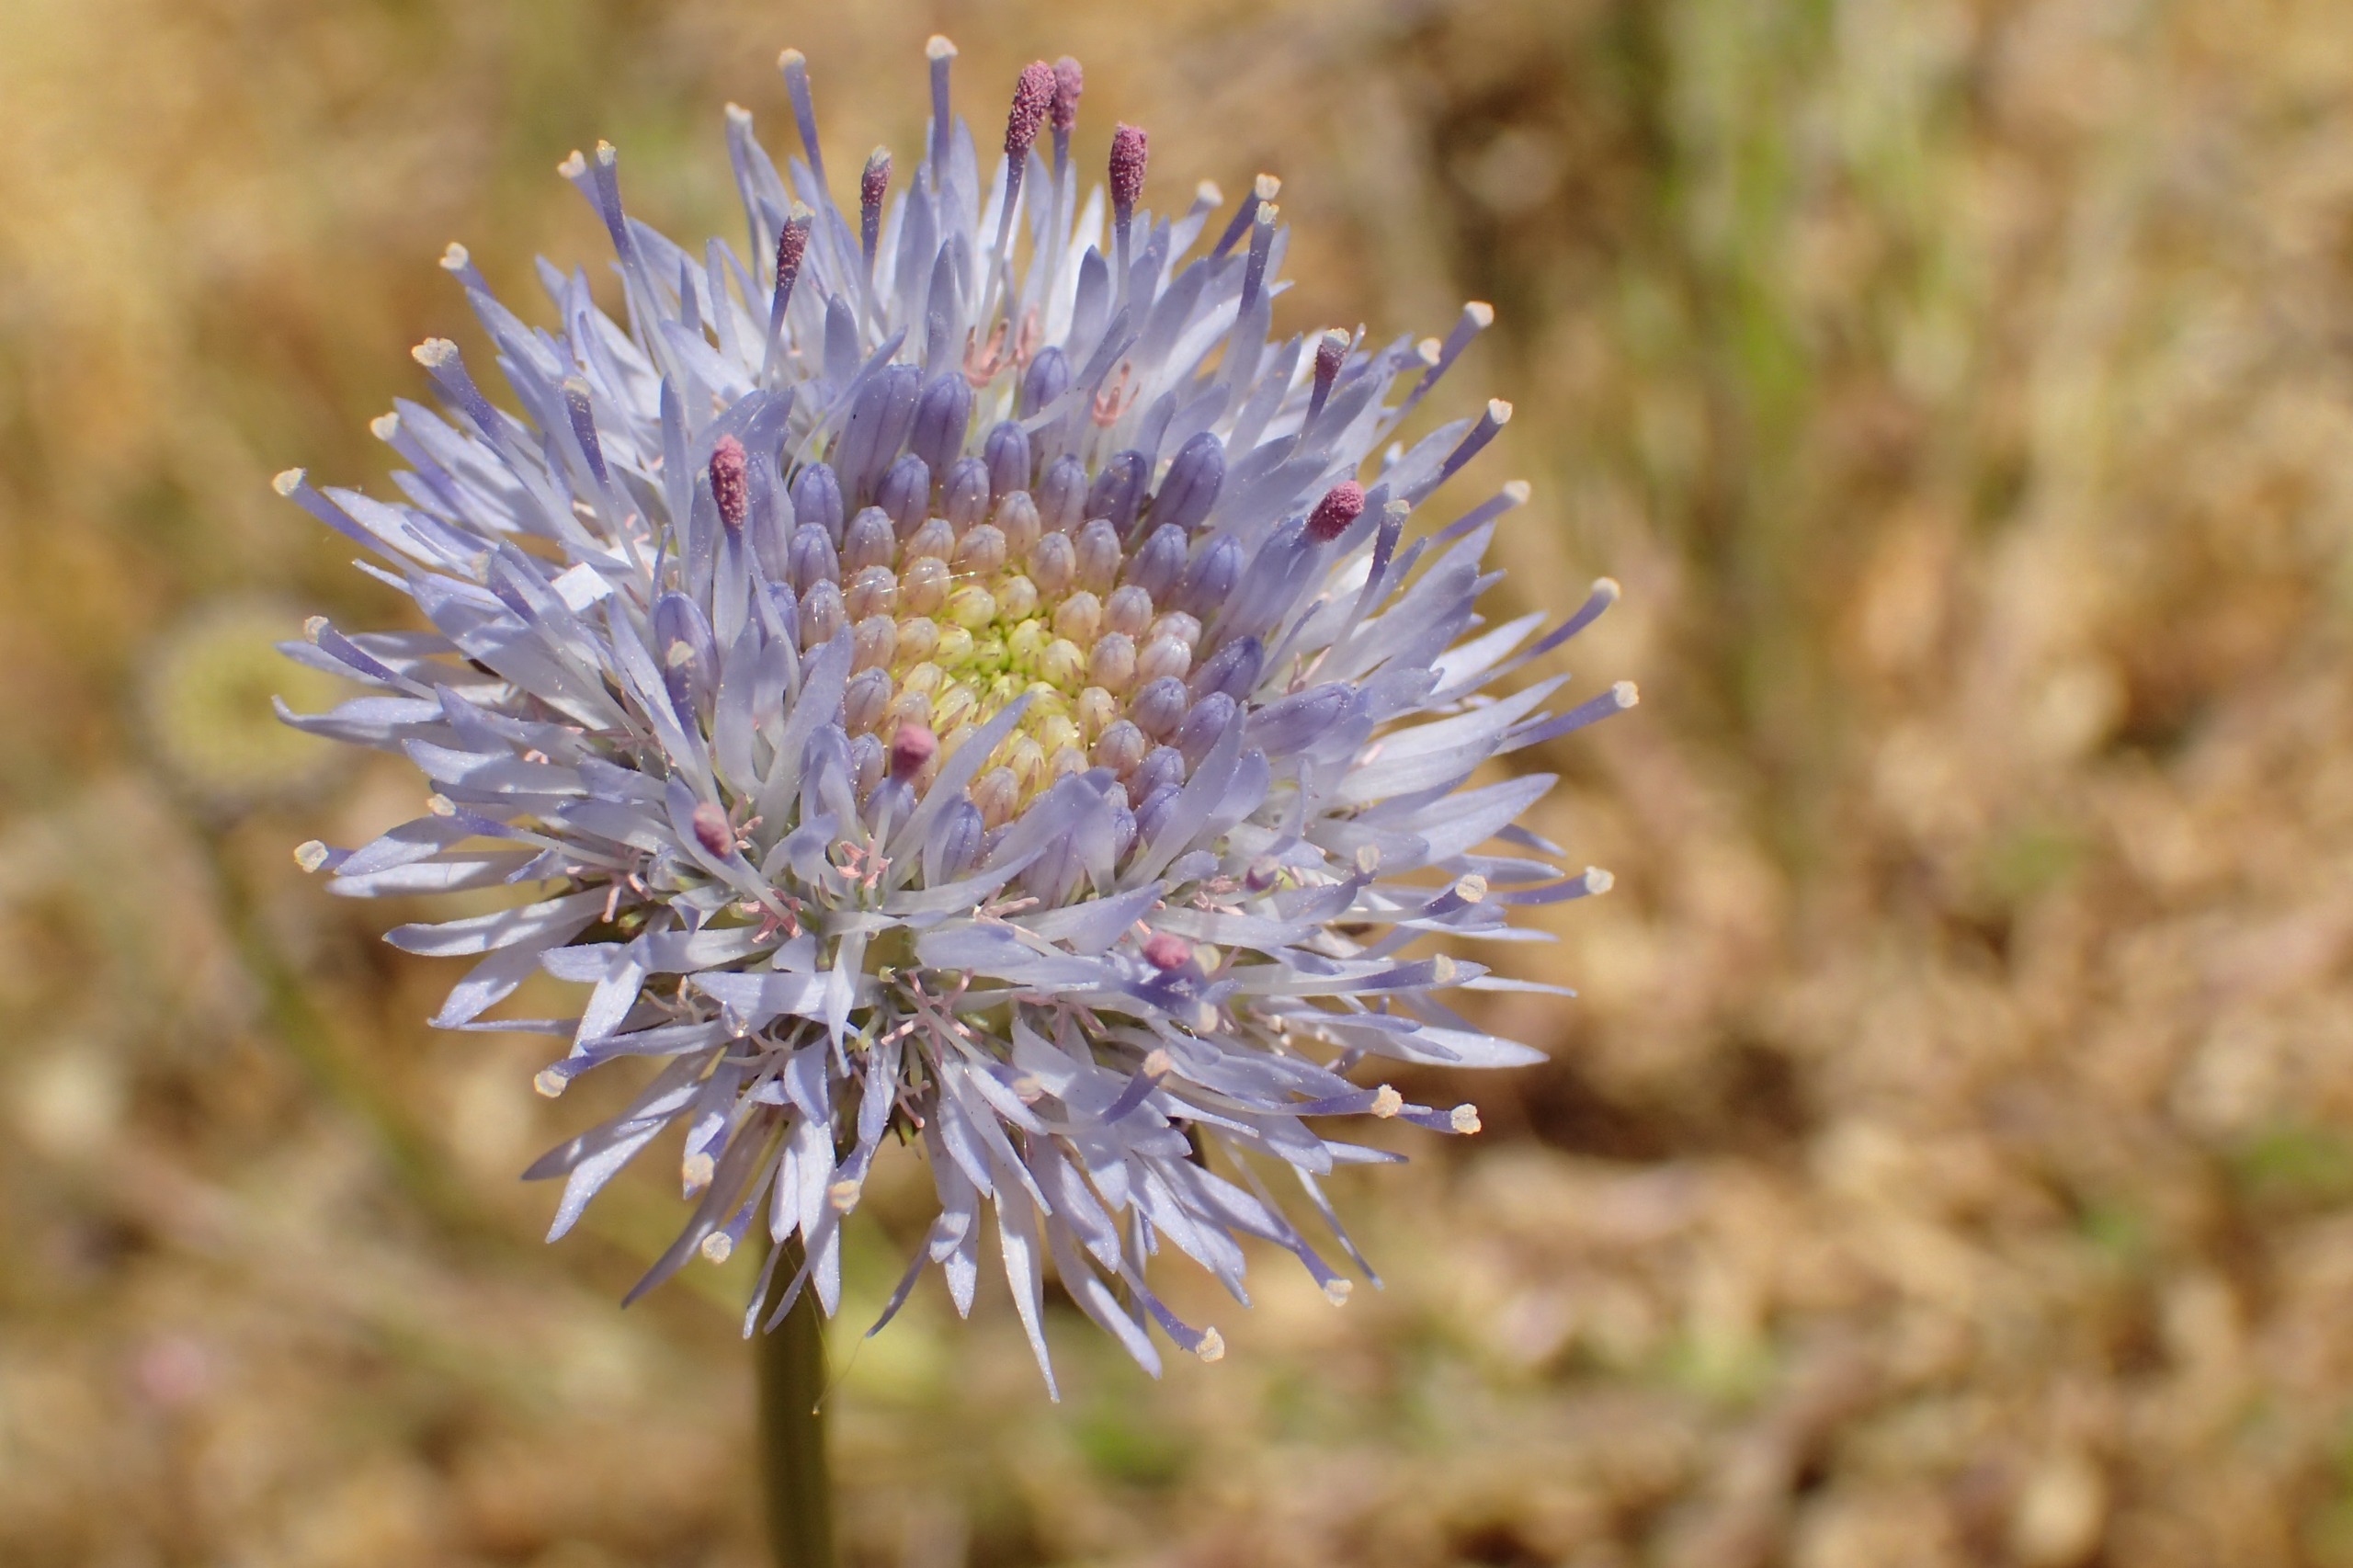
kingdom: Plantae
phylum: Tracheophyta
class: Magnoliopsida
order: Asterales
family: Campanulaceae
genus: Jasione
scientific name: Jasione montana
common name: Blåmunke
